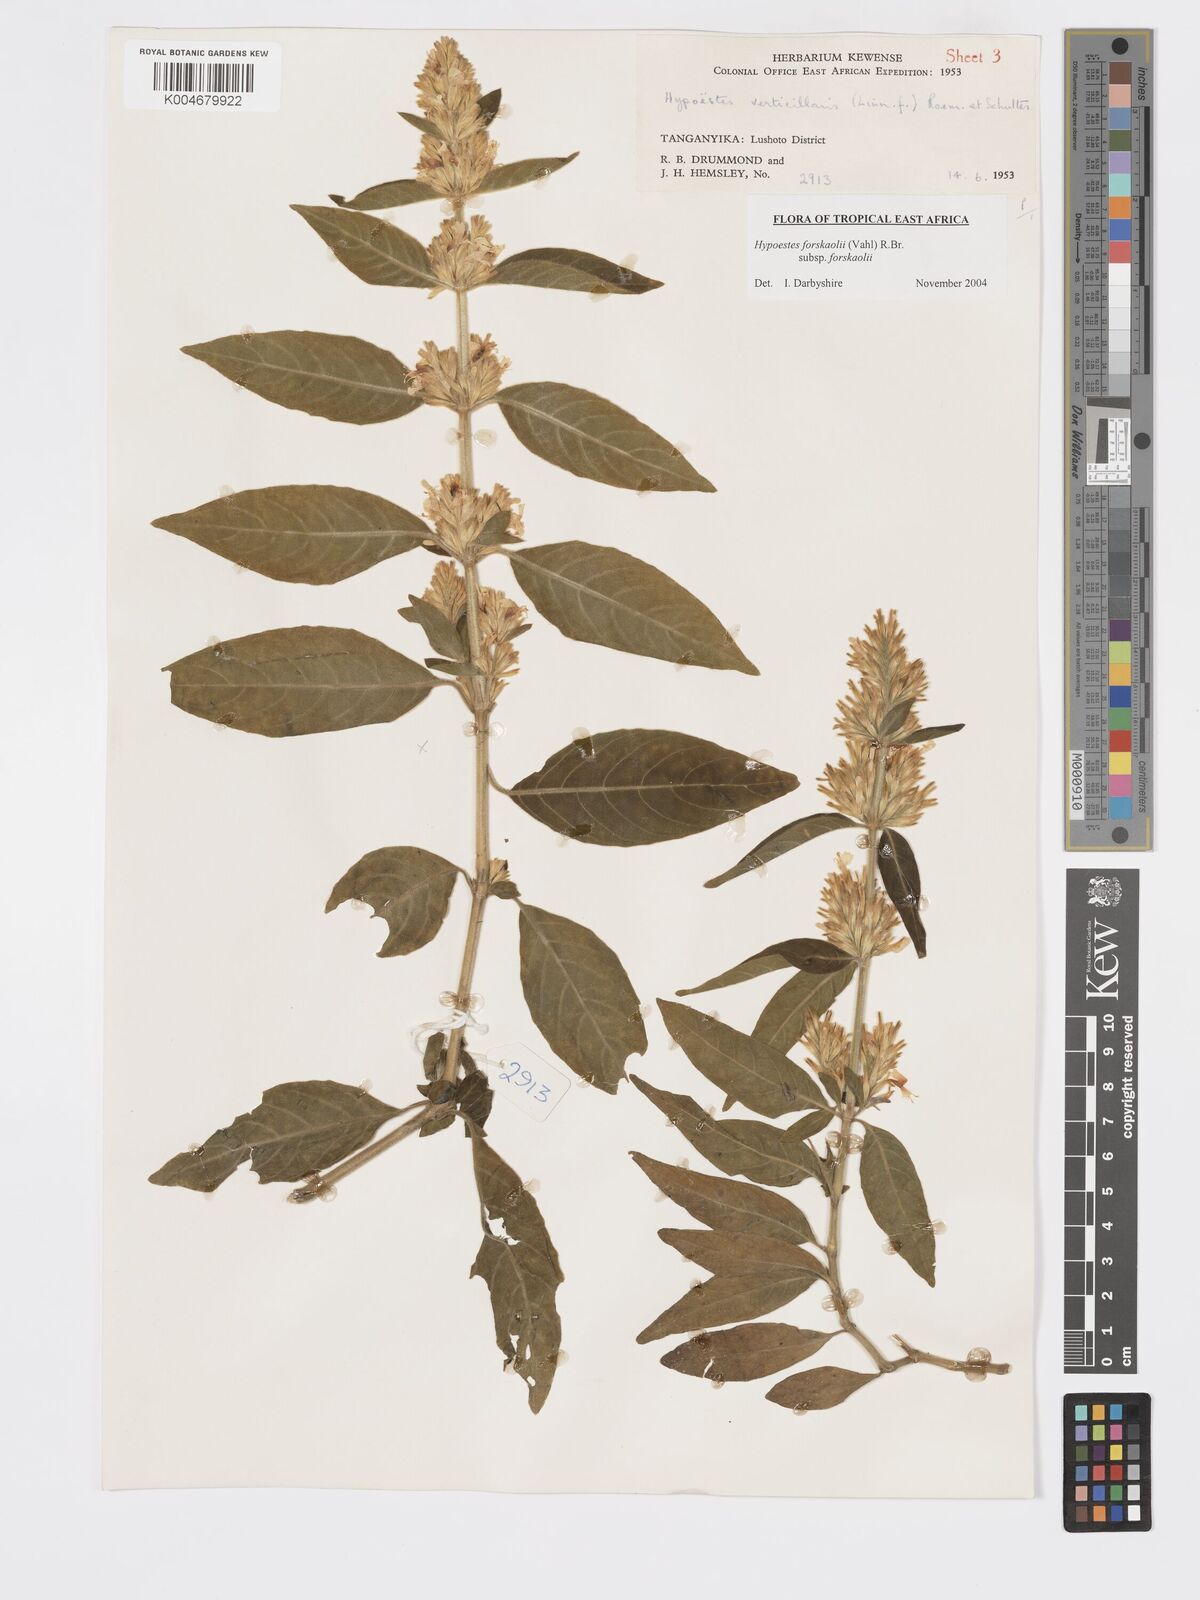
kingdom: Plantae
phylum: Tracheophyta
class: Magnoliopsida
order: Lamiales
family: Acanthaceae
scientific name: Acanthaceae
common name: Acanthaceae
